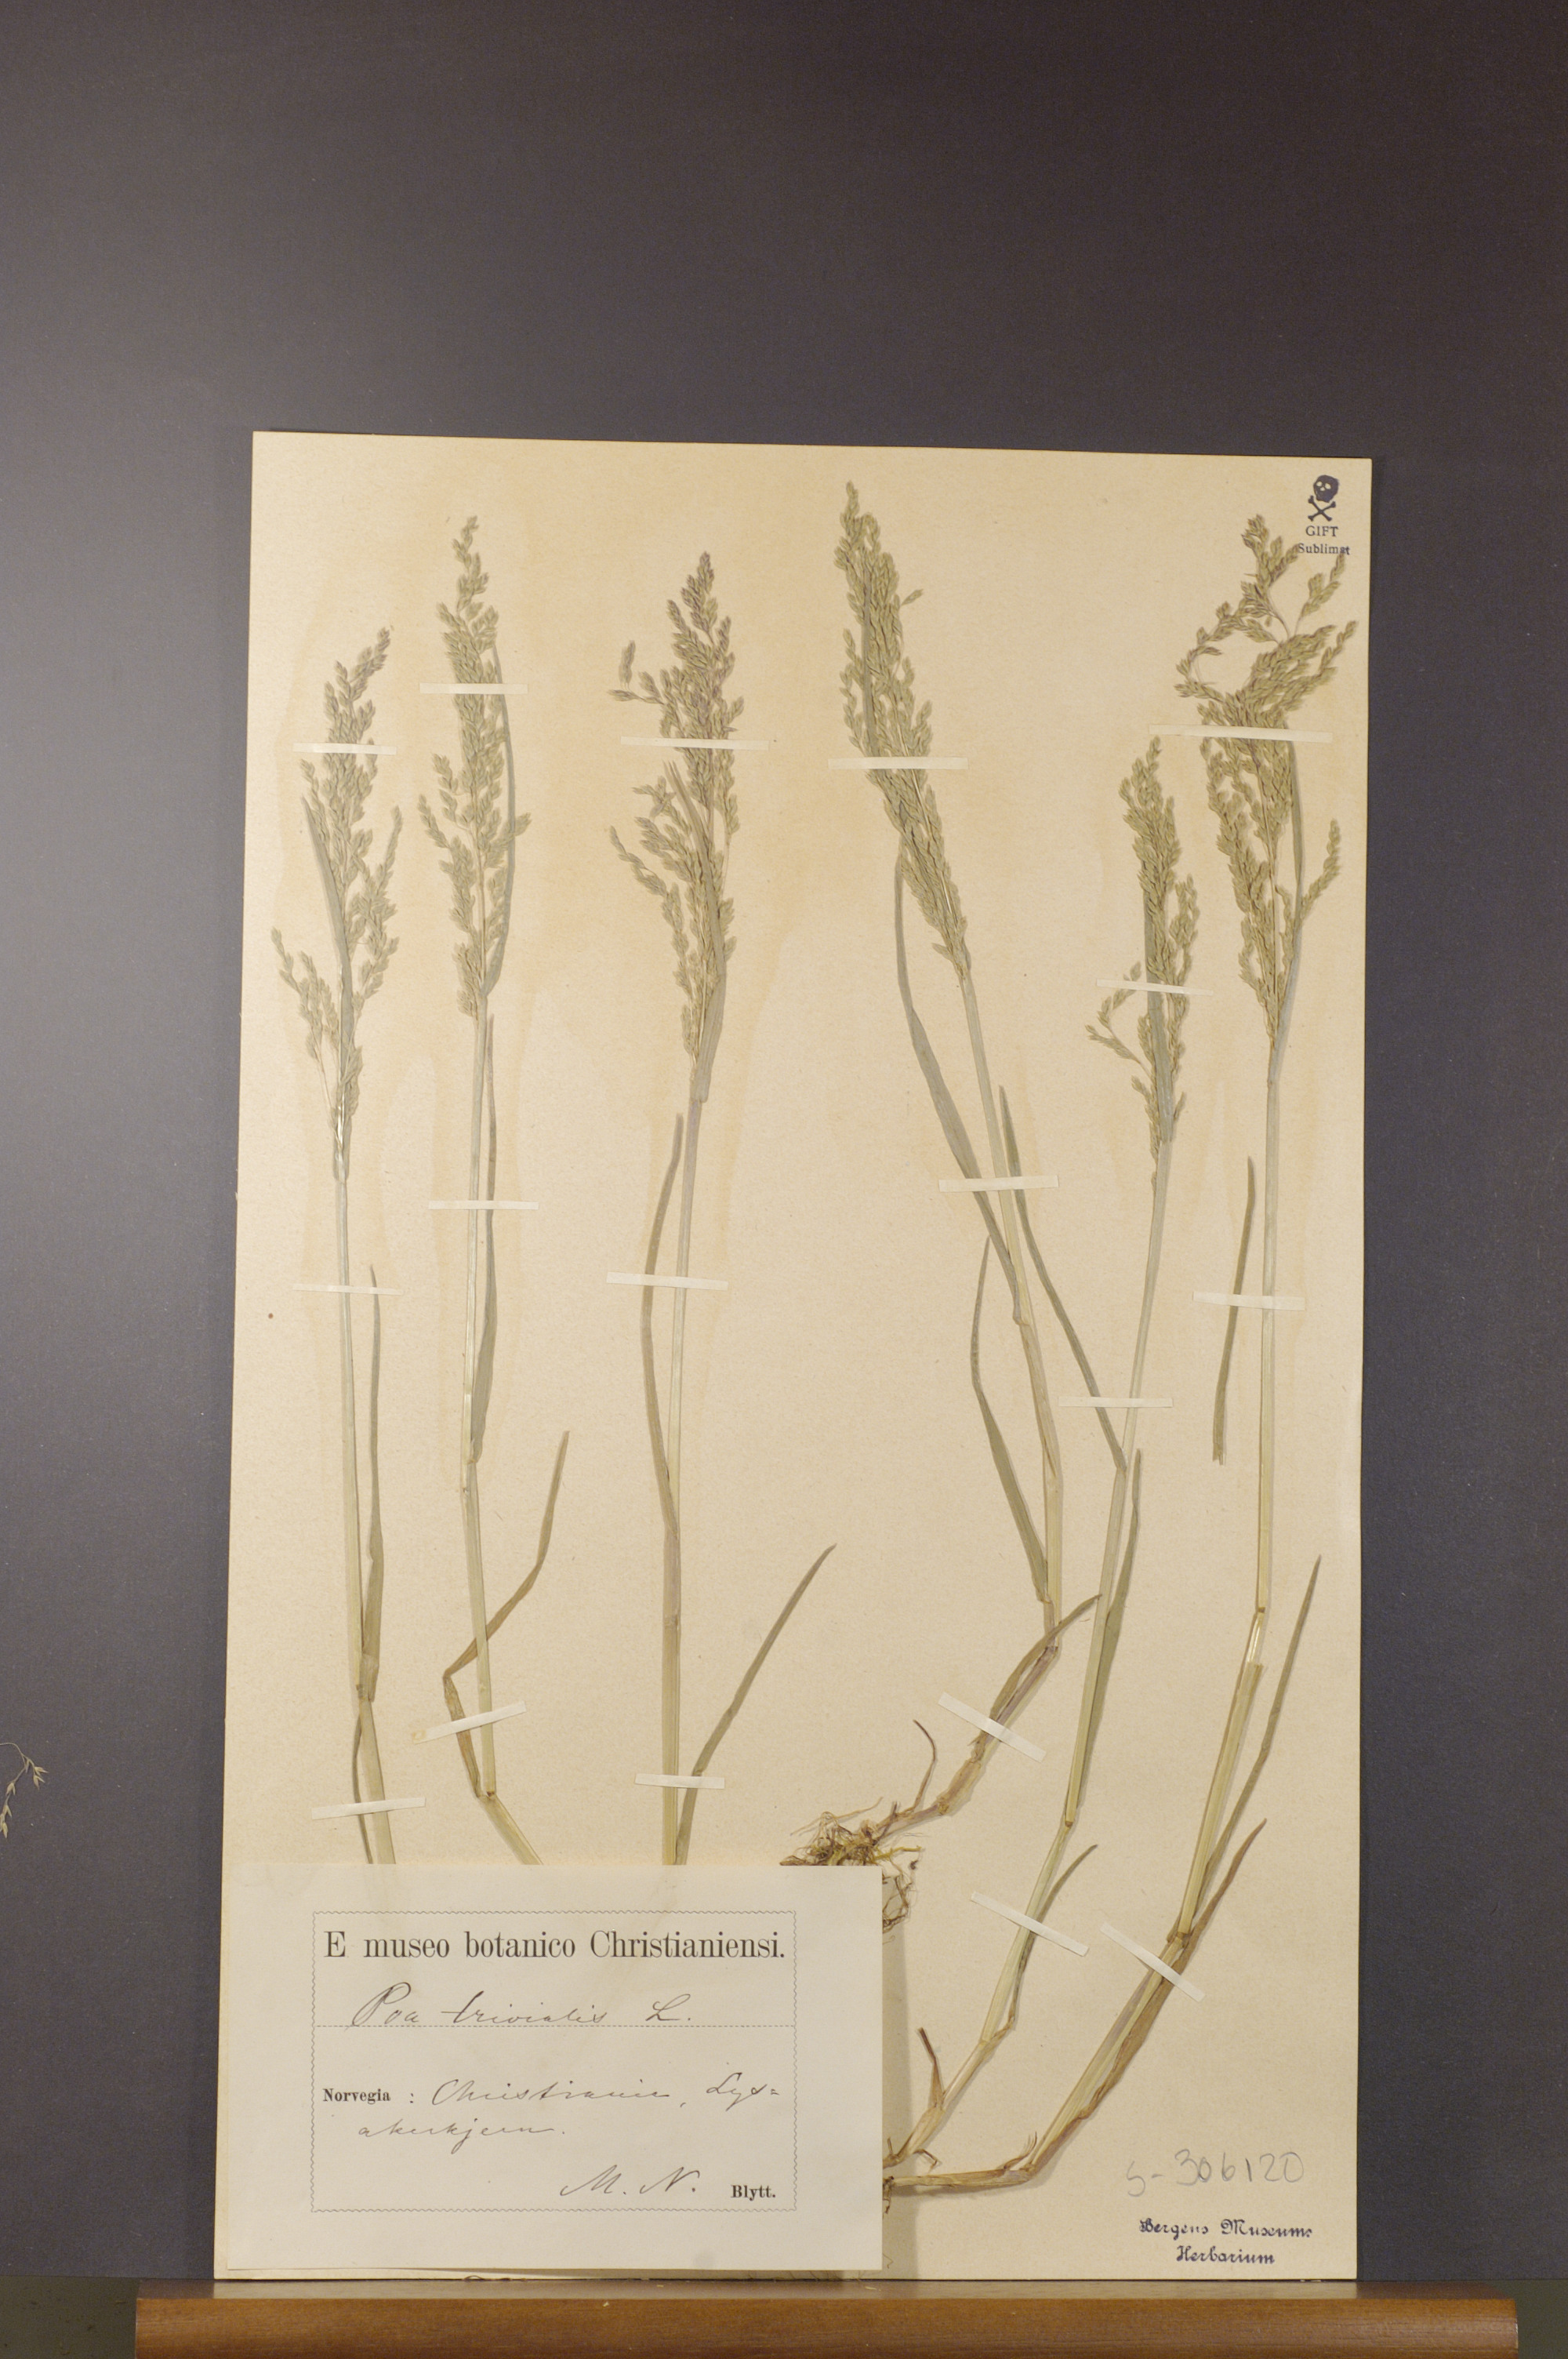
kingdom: Plantae
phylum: Tracheophyta
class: Liliopsida
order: Poales
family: Poaceae
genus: Poa
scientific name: Poa trivialis
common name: Rough bluegrass
